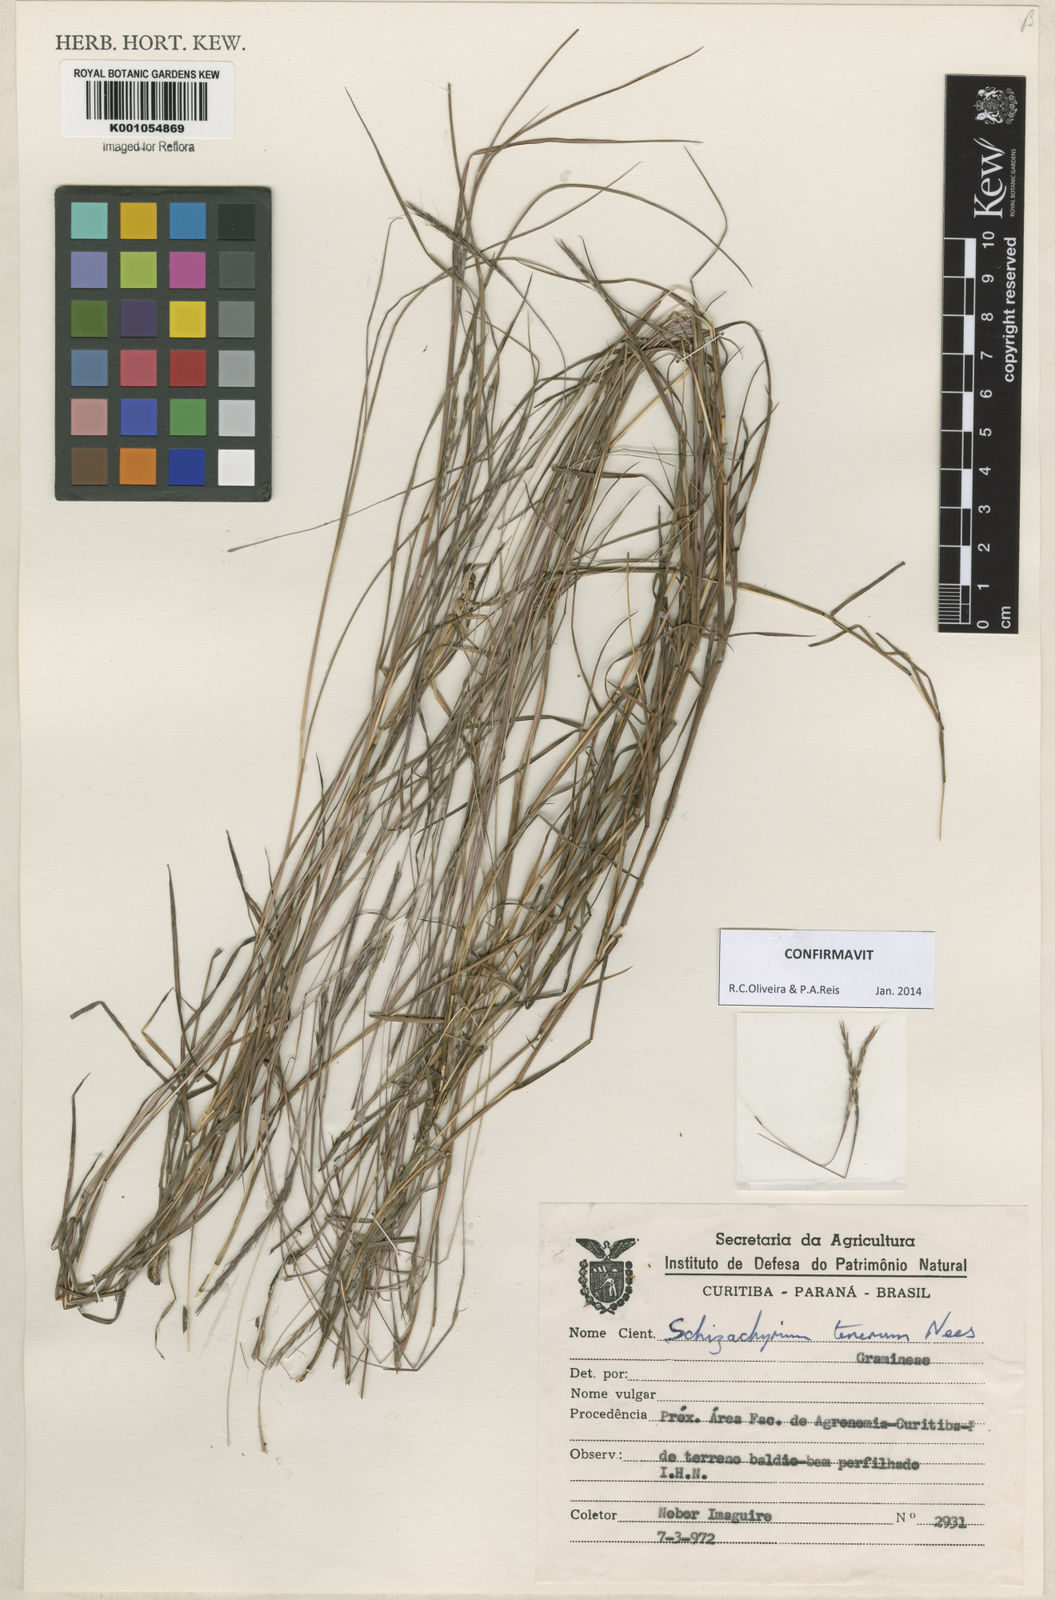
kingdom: Plantae
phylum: Tracheophyta
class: Liliopsida
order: Poales
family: Poaceae
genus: Andropogon
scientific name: Andropogon tener
